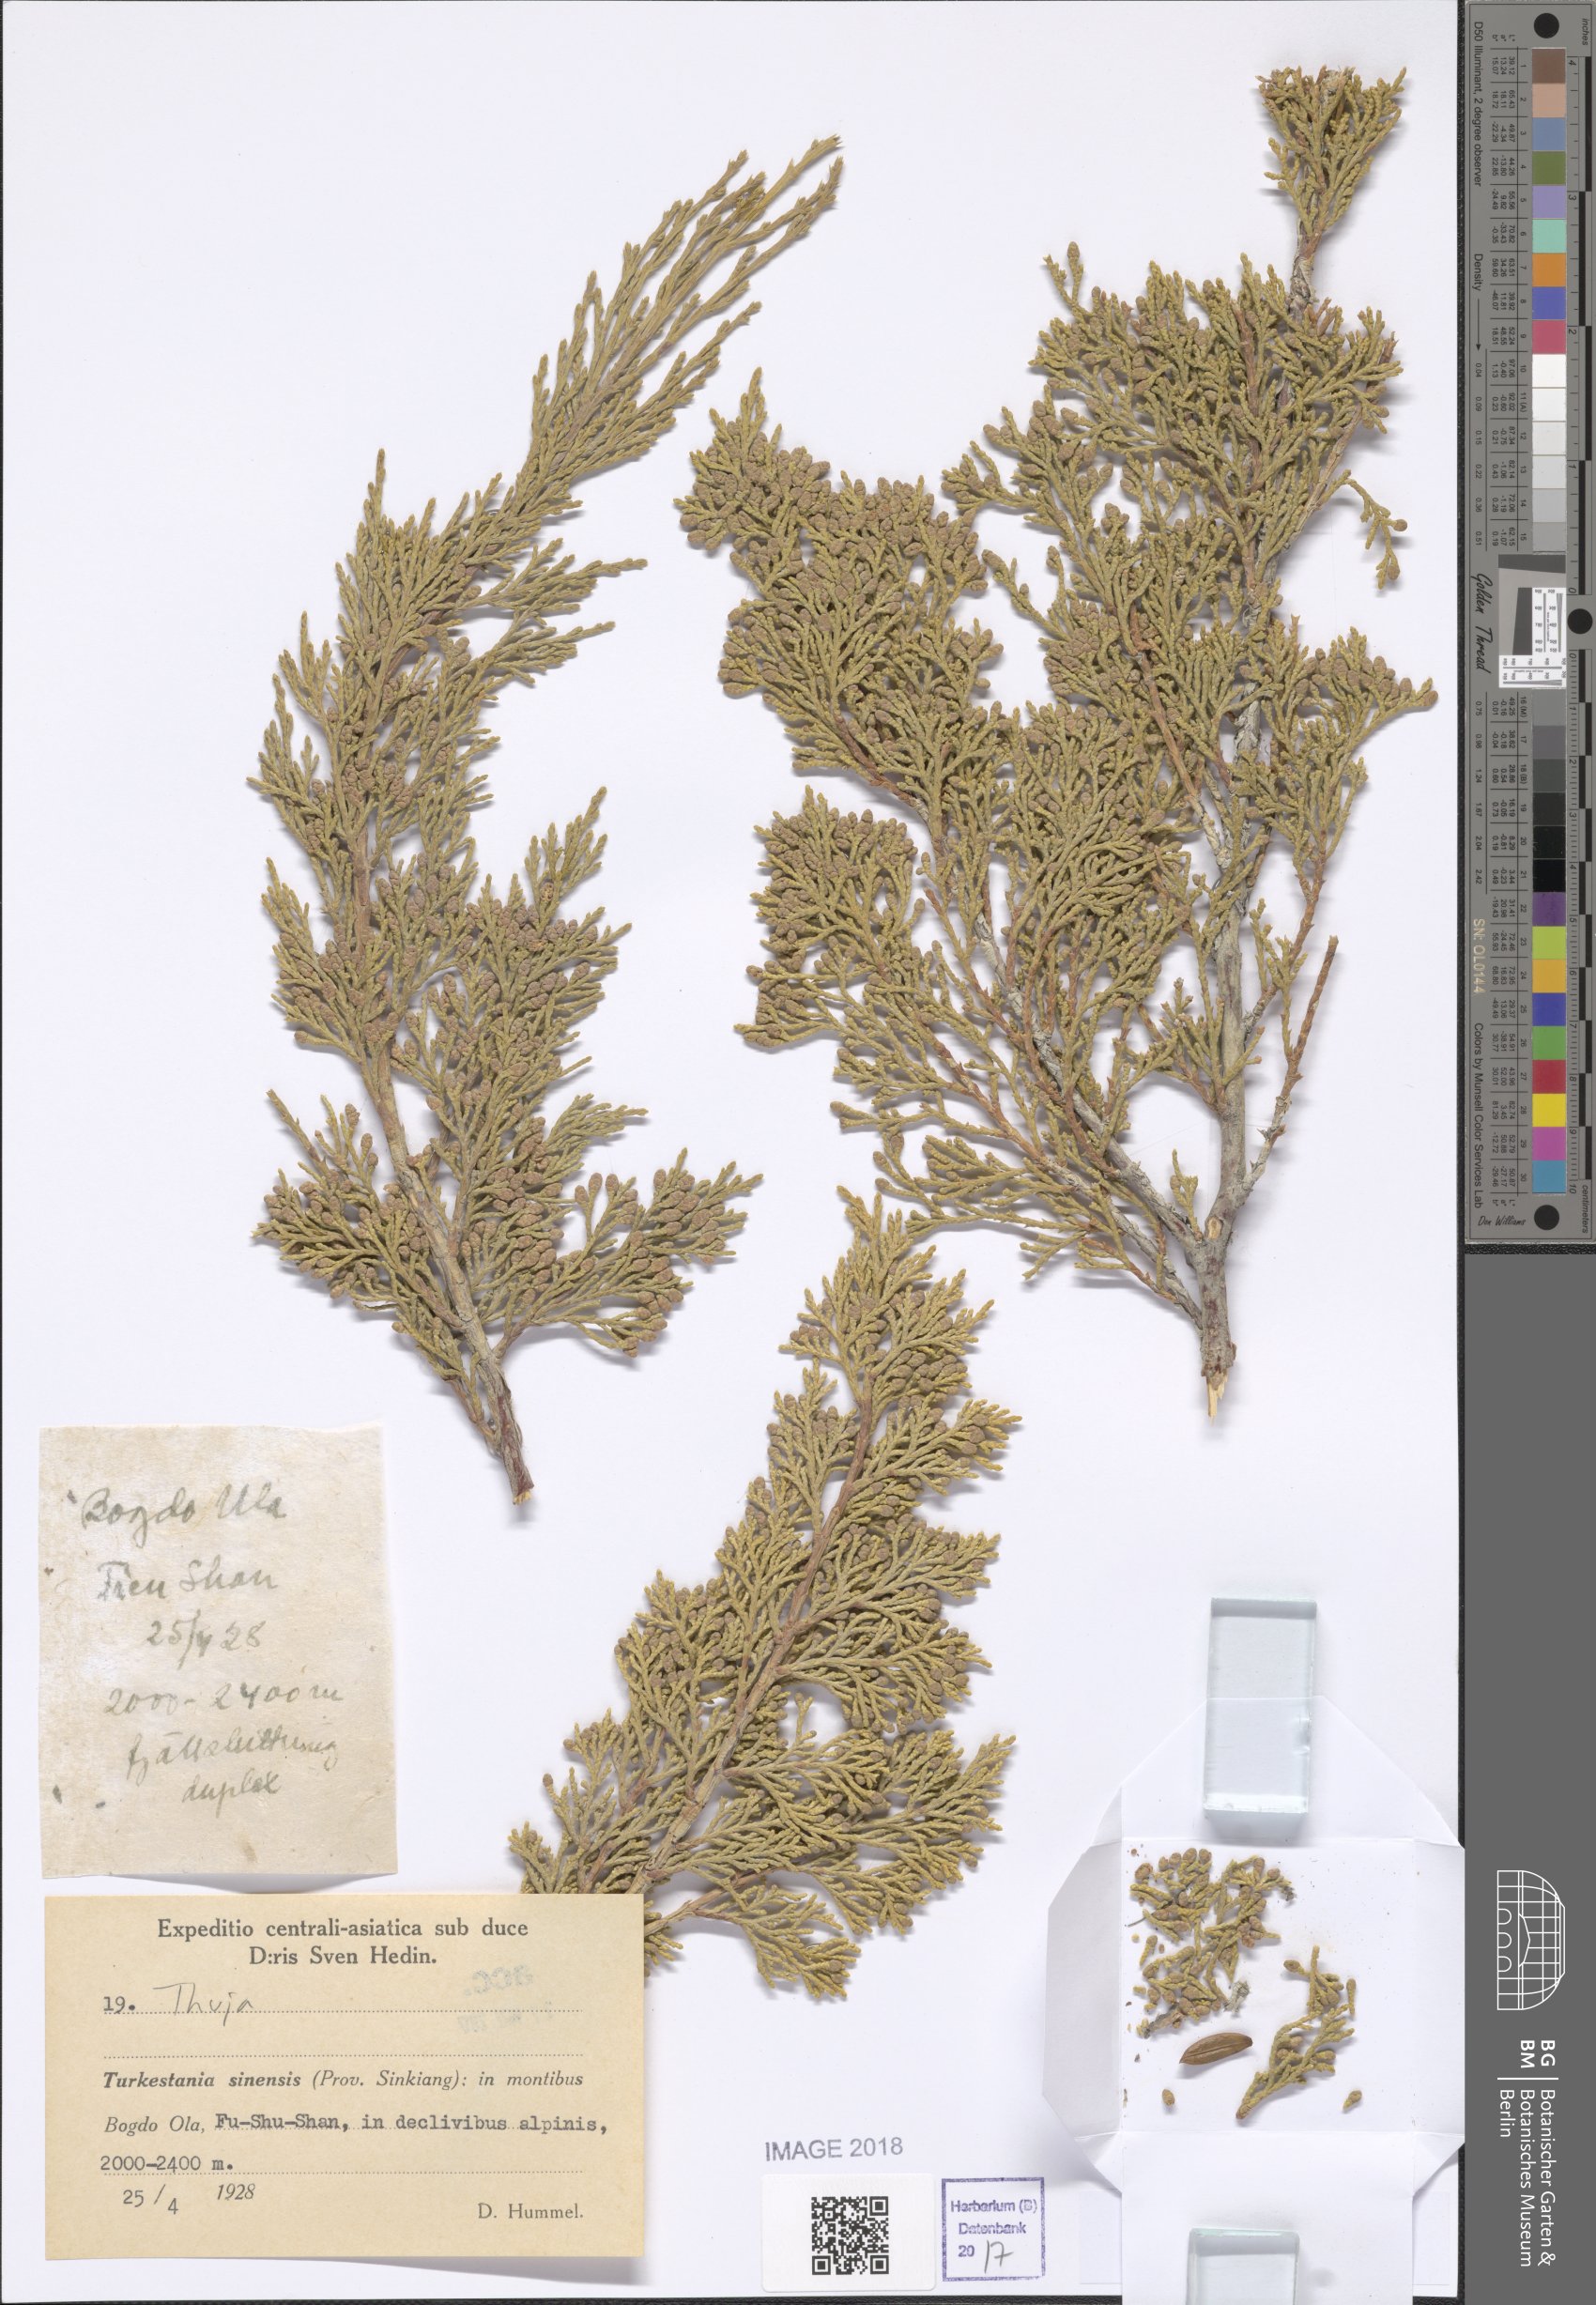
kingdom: Plantae
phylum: Tracheophyta
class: Pinopsida
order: Pinales
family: Cupressaceae
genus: Thuja
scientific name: Thuja
